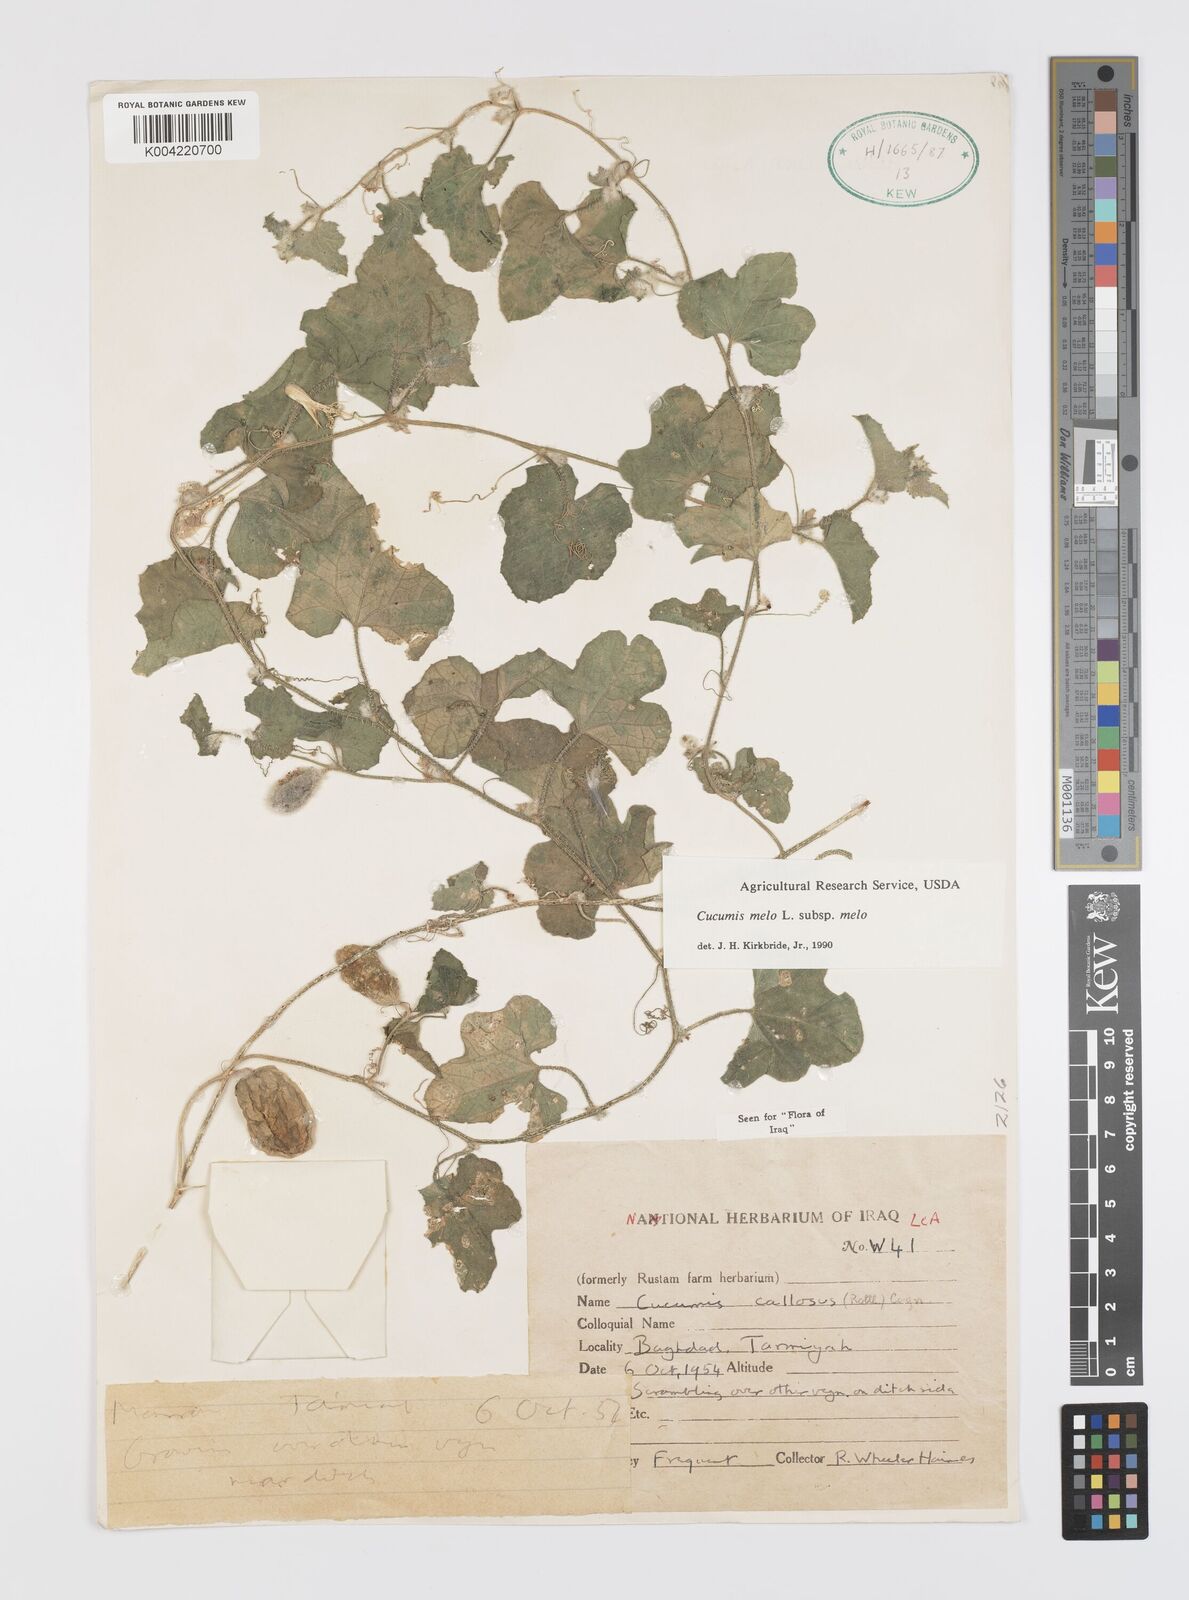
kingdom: Plantae
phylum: Tracheophyta
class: Magnoliopsida
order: Cucurbitales
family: Cucurbitaceae
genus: Cucumis
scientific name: Cucumis melo
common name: Melon
